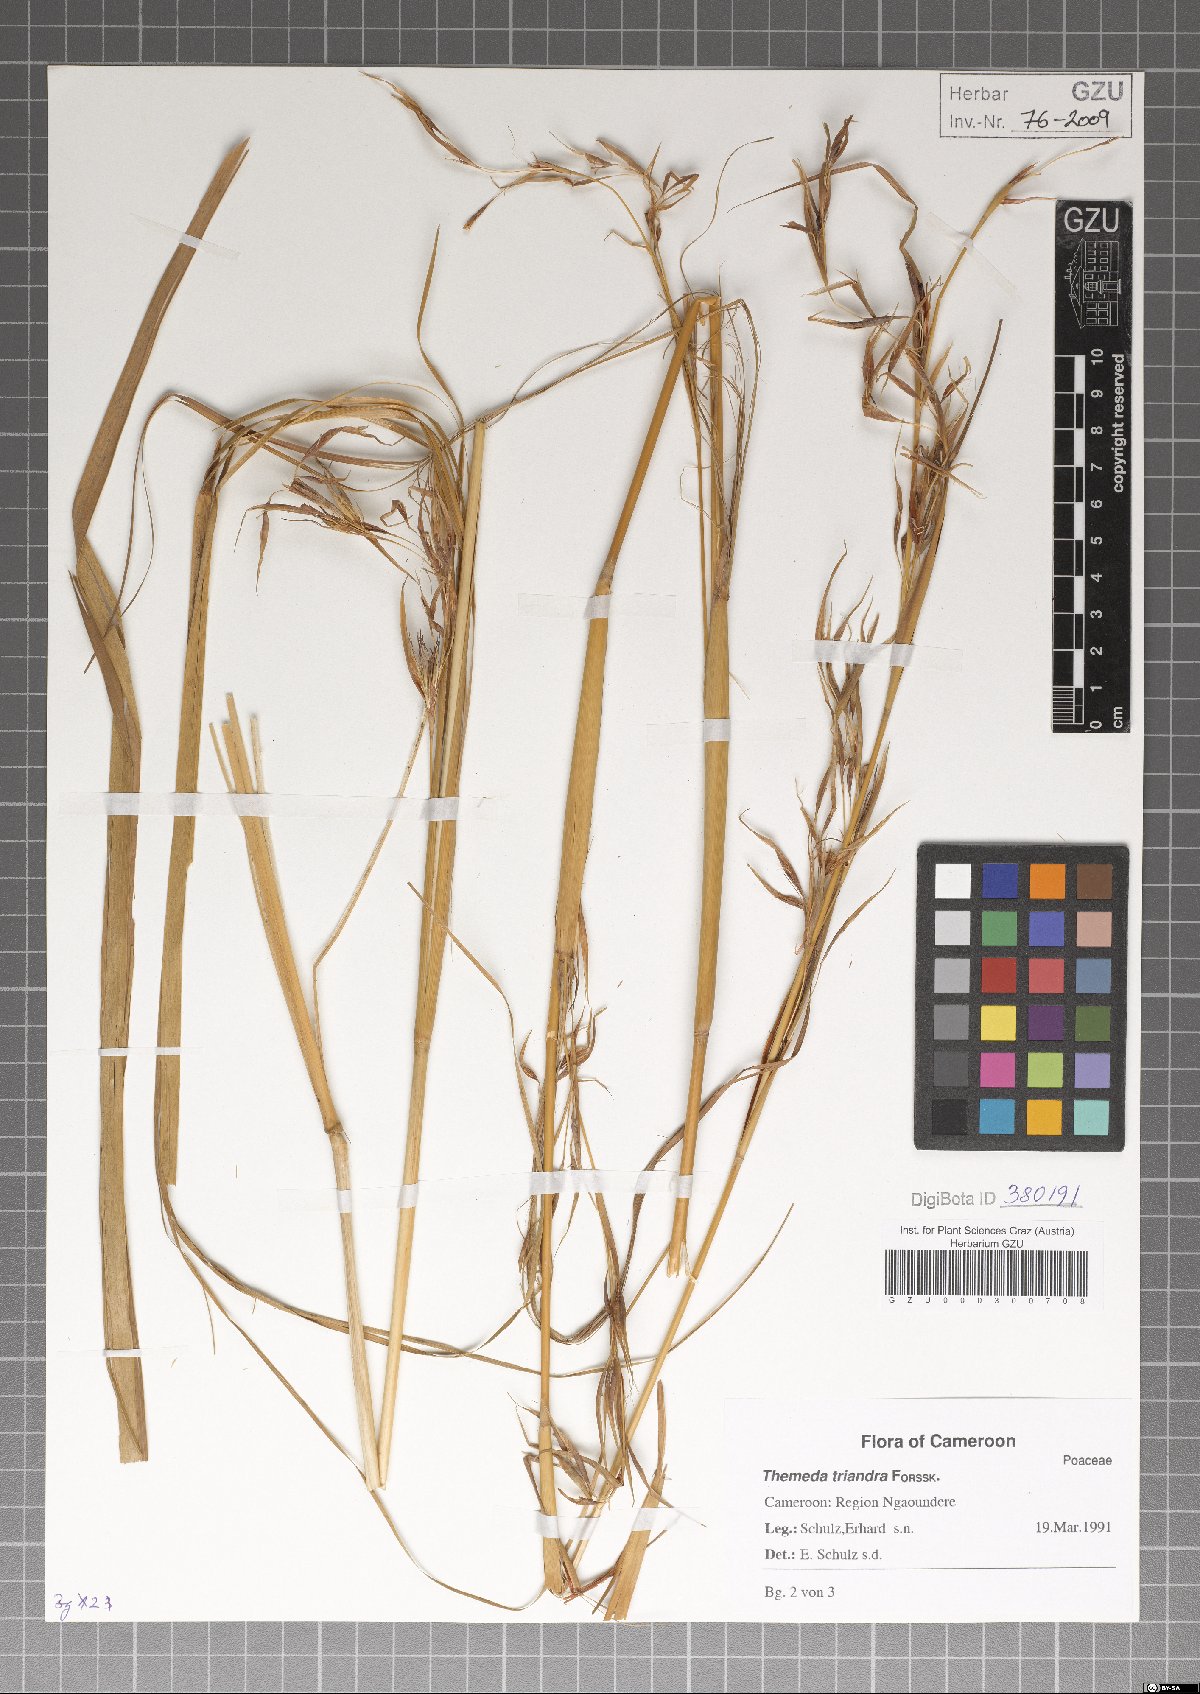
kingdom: Plantae
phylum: Tracheophyta
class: Liliopsida
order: Poales
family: Poaceae
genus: Themeda
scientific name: Themeda triandra
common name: Kangaroo grass
